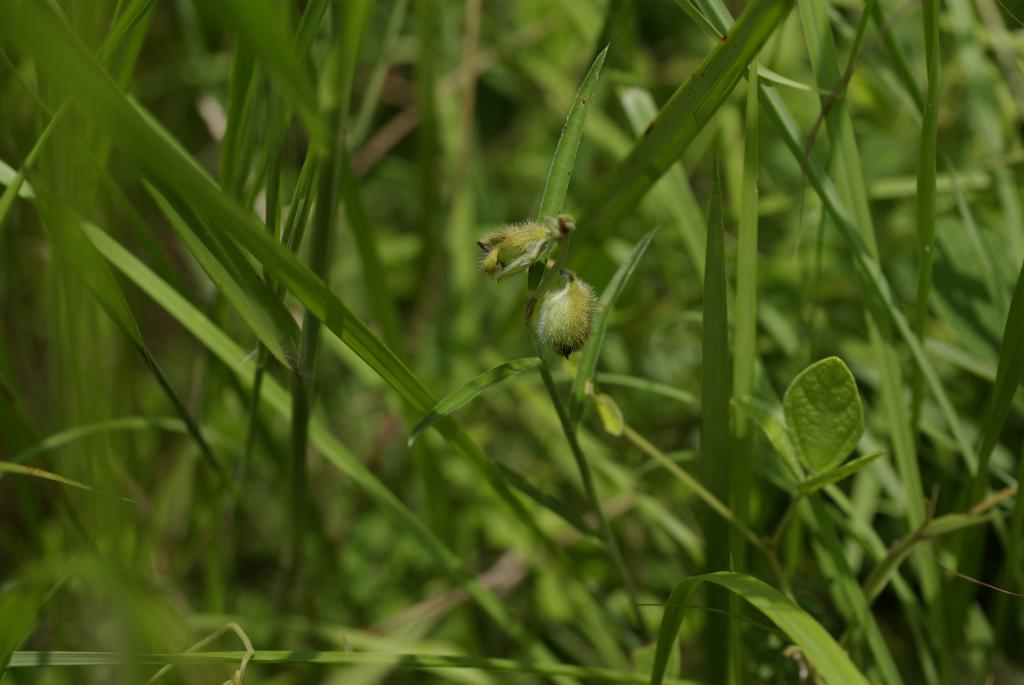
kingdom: Plantae
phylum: Tracheophyta
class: Magnoliopsida
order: Fabales
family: Fabaceae
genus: Crotalaria
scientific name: Crotalaria sessiliflora
